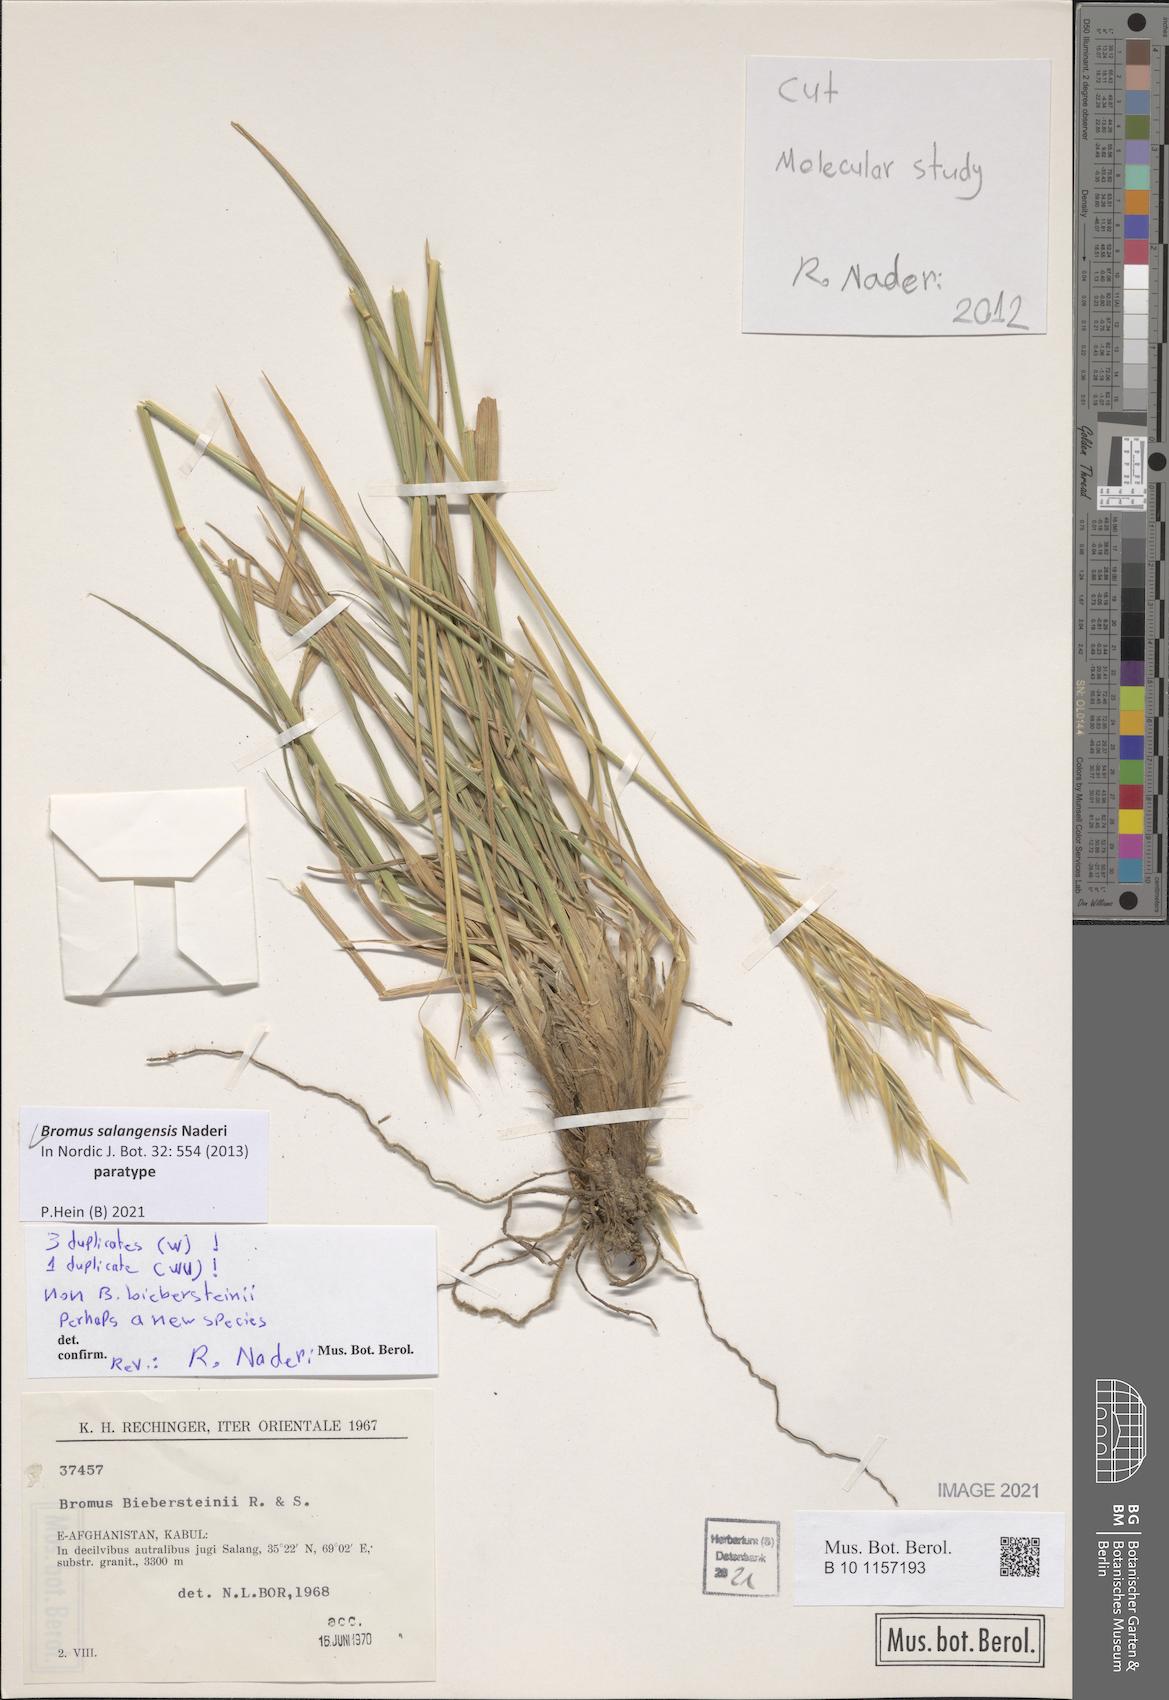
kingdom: Plantae
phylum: Tracheophyta
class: Liliopsida
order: Poales
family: Poaceae
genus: Bromus
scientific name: Bromus salangensis
